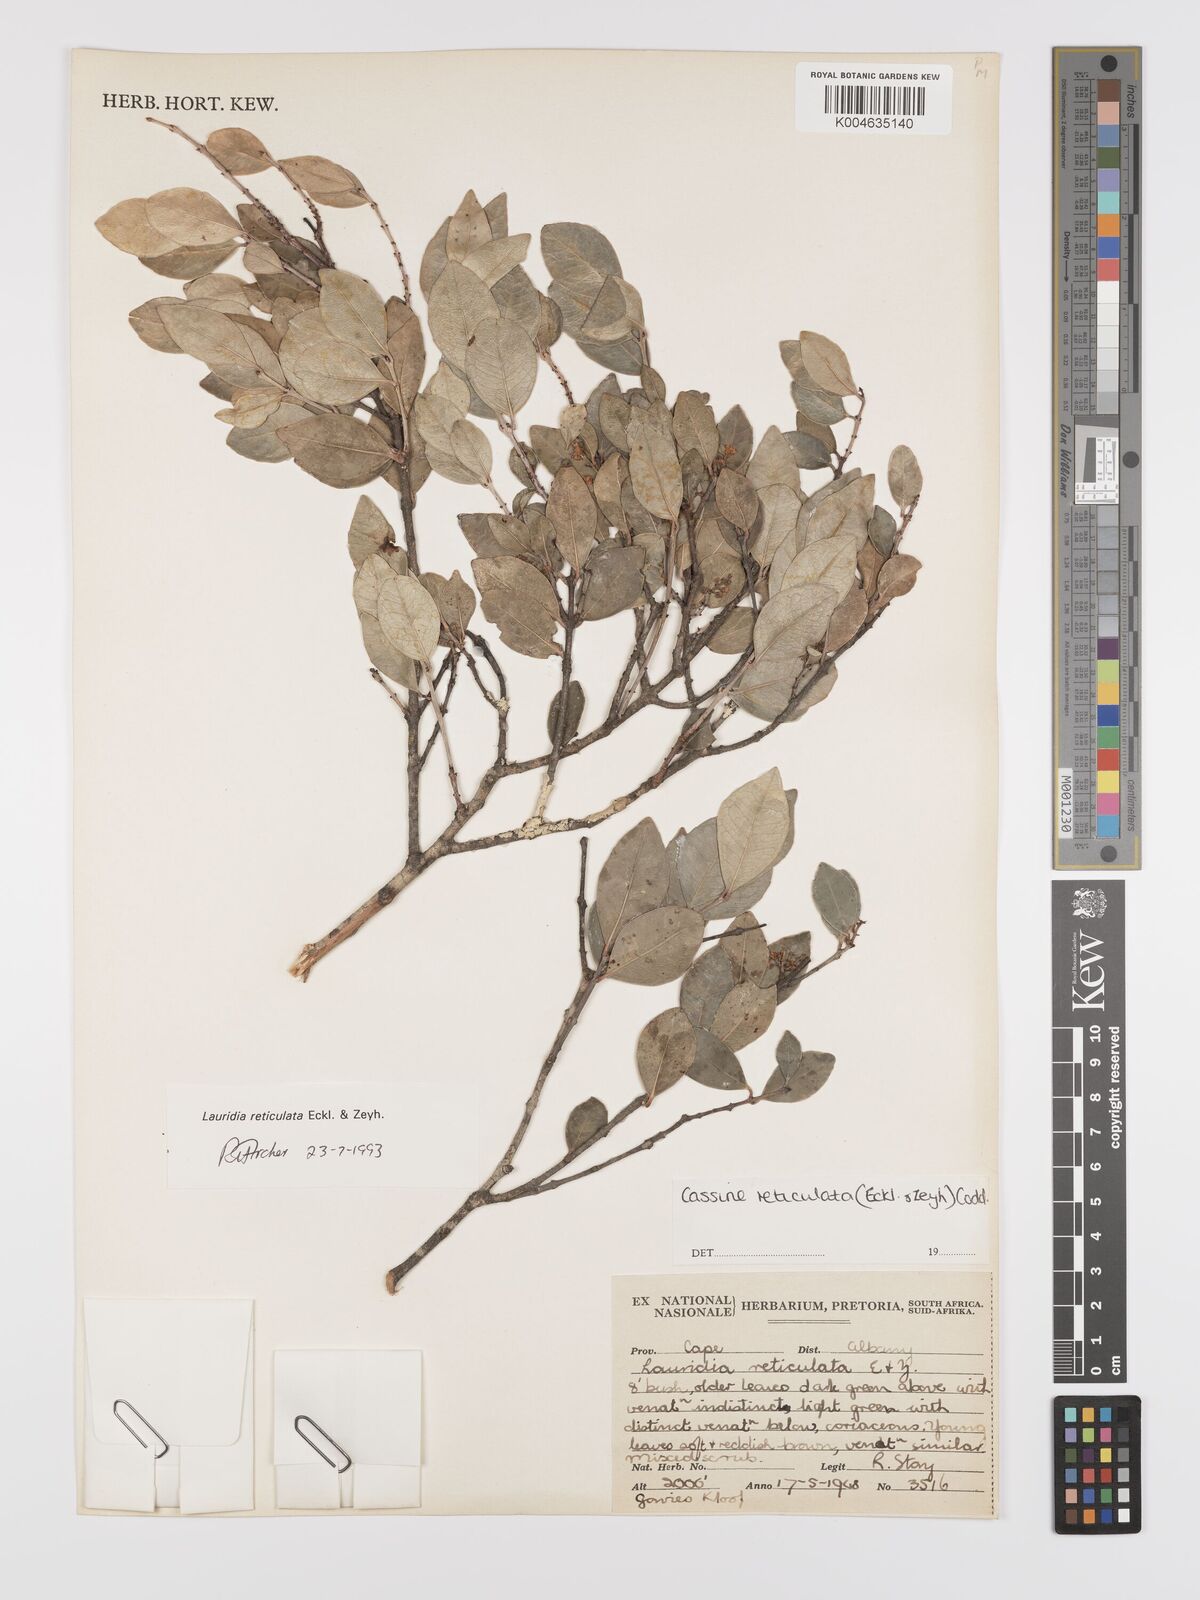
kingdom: Plantae
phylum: Tracheophyta
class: Magnoliopsida
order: Celastrales
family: Celastraceae
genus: Lauridia
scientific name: Lauridia reticulata
